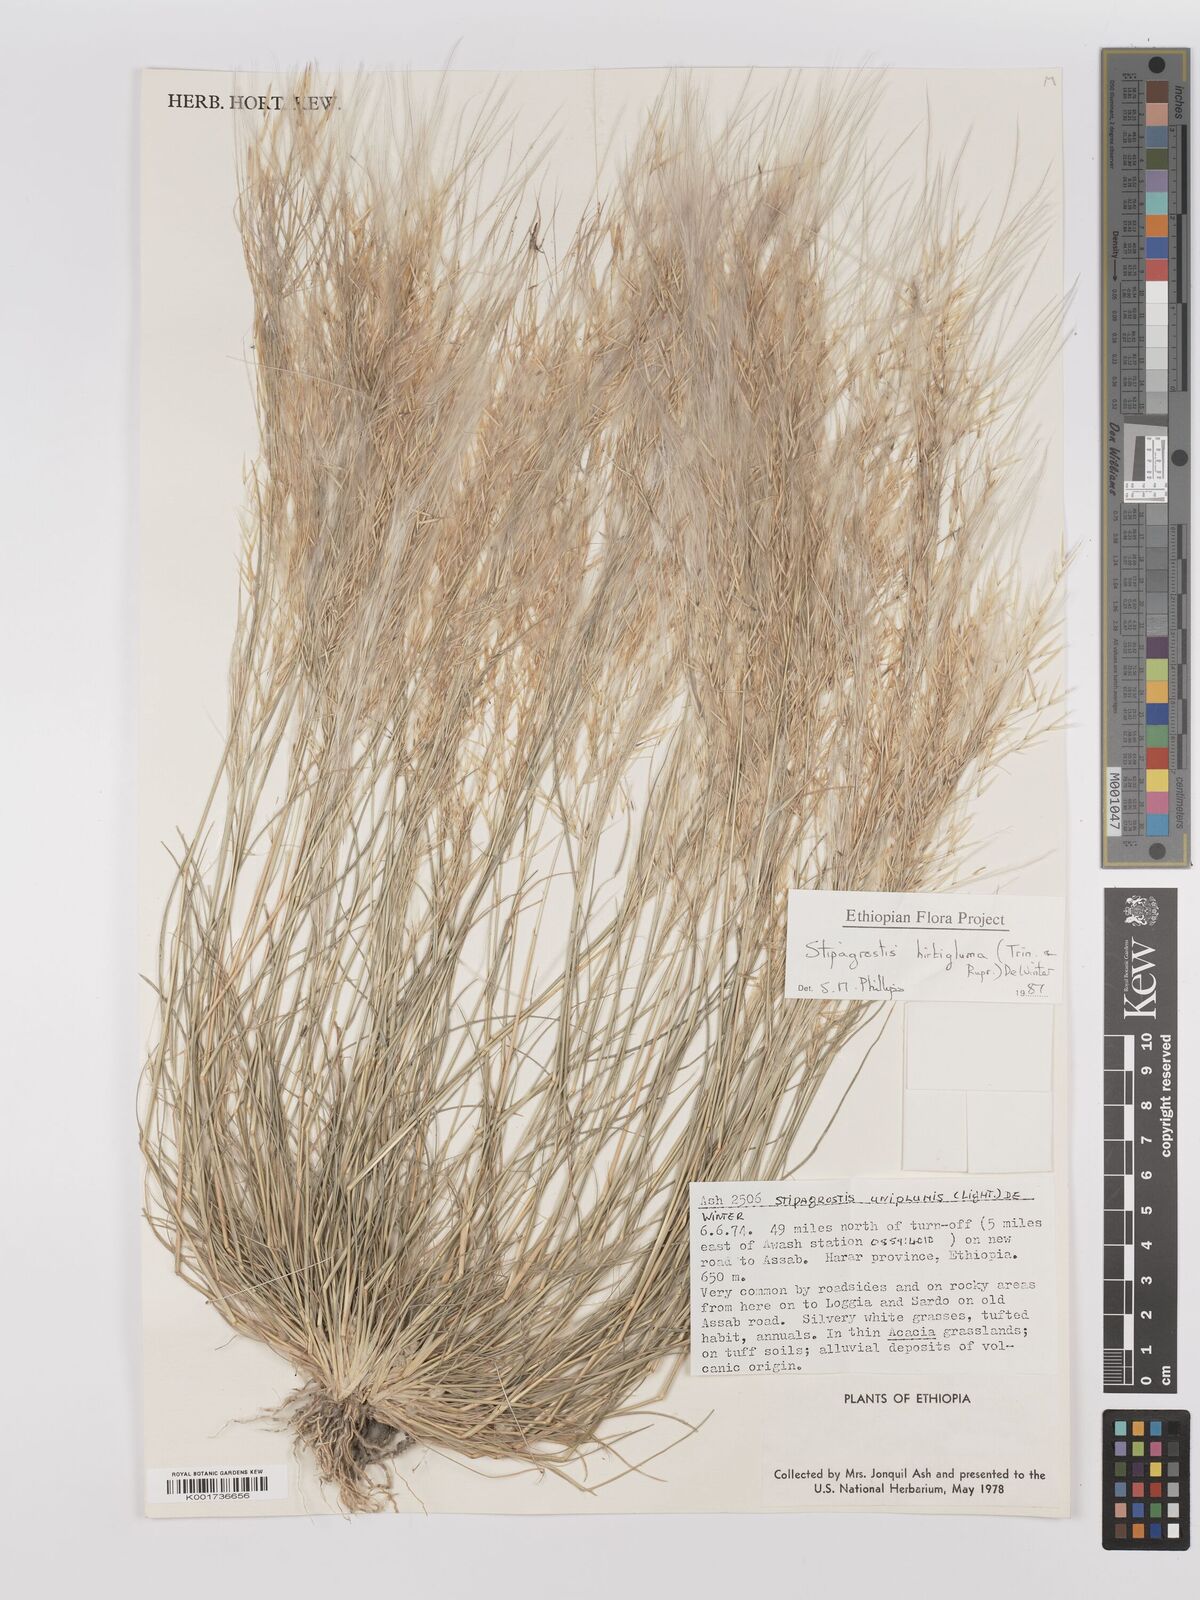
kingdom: Plantae
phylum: Tracheophyta
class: Liliopsida
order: Poales
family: Poaceae
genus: Stipagrostis
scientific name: Stipagrostis uniplumis
